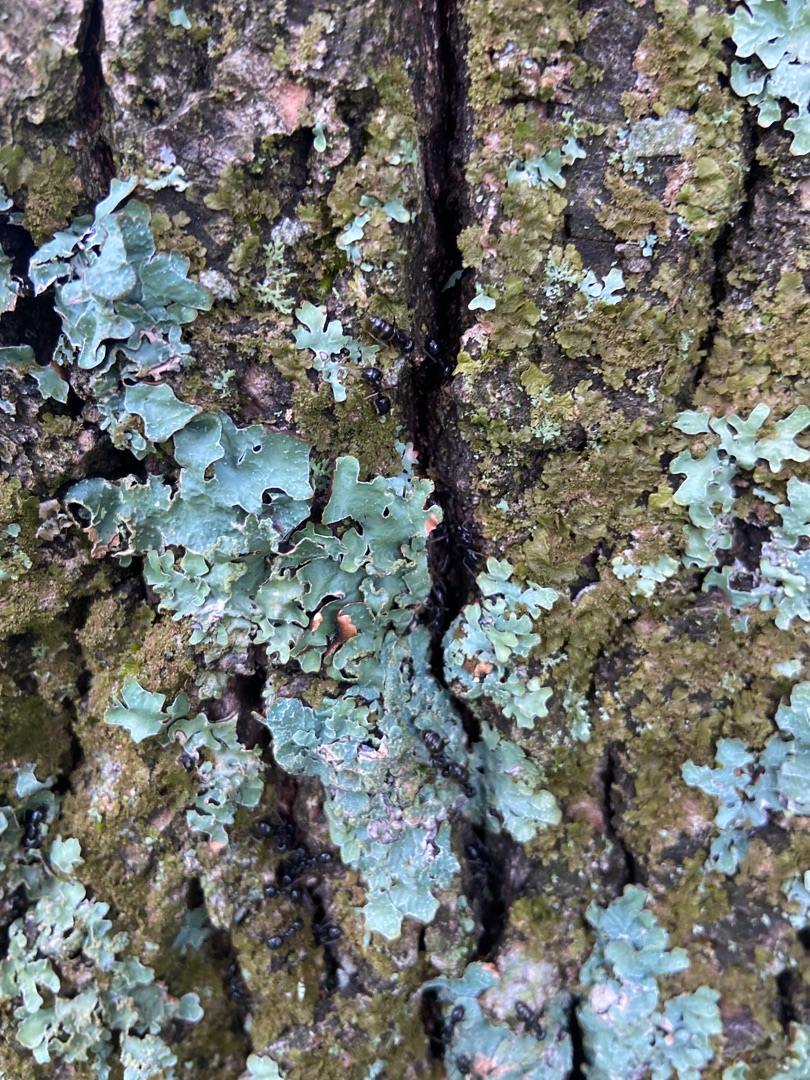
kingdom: Animalia
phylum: Arthropoda
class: Insecta
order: Hymenoptera
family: Formicidae
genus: Lasius
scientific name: Lasius fuliginosus
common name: Orangemyre
